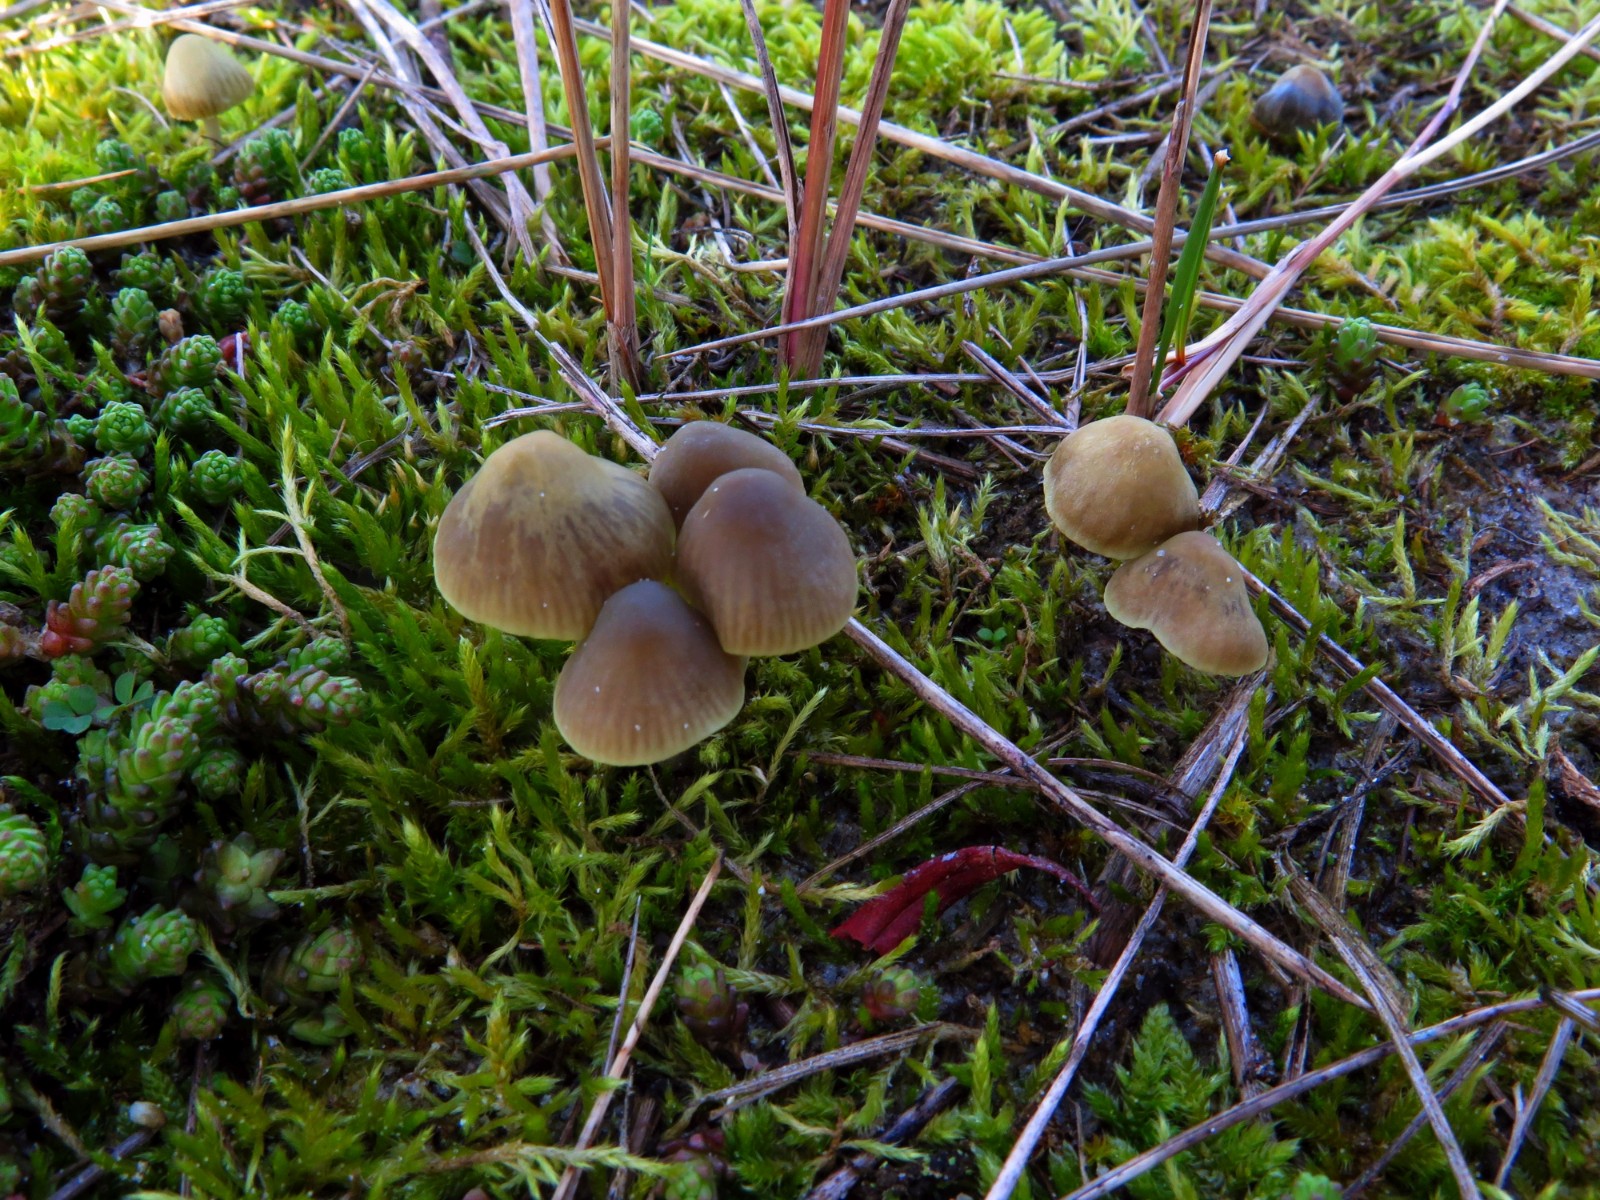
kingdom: Fungi
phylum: Basidiomycota
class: Agaricomycetes
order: Agaricales
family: Mycenaceae
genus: Mycena
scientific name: Mycena chlorantha
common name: klit-huesvamp
